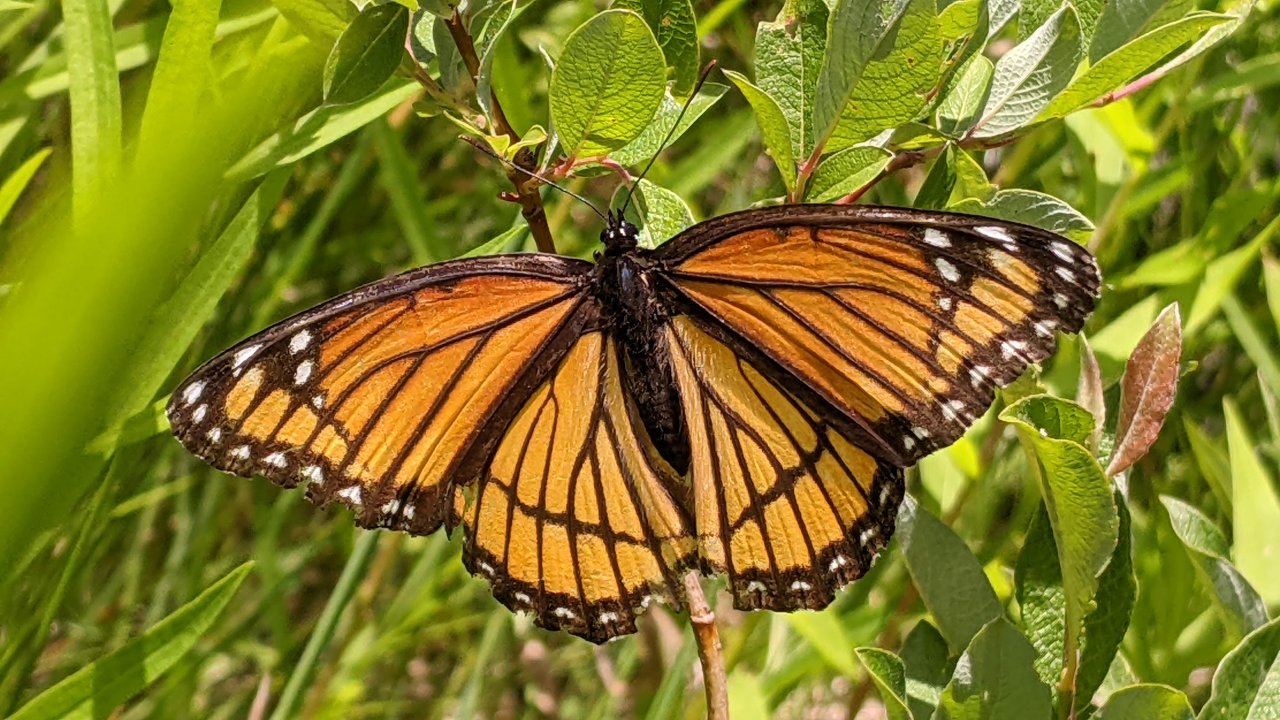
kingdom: Animalia
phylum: Arthropoda
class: Insecta
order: Lepidoptera
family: Nymphalidae
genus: Limenitis
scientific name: Limenitis archippus
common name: Viceroy
